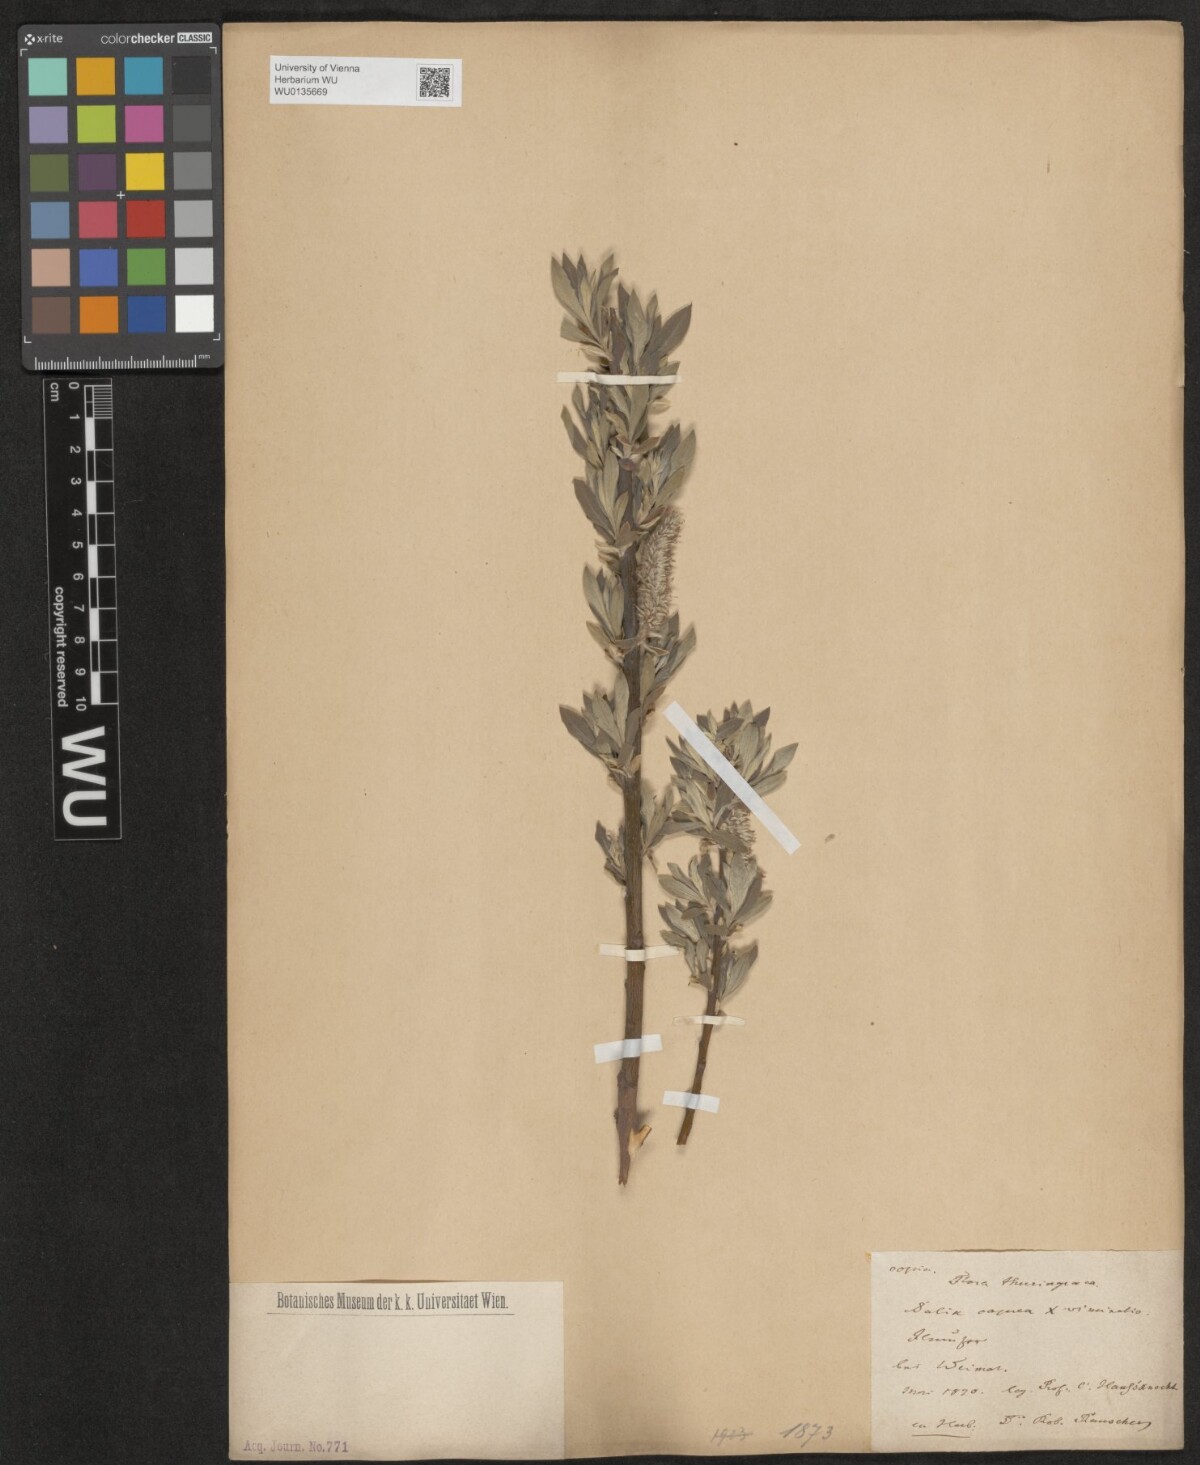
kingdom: Plantae
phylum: Tracheophyta
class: Magnoliopsida
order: Malpighiales
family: Salicaceae
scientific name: Salicaceae
